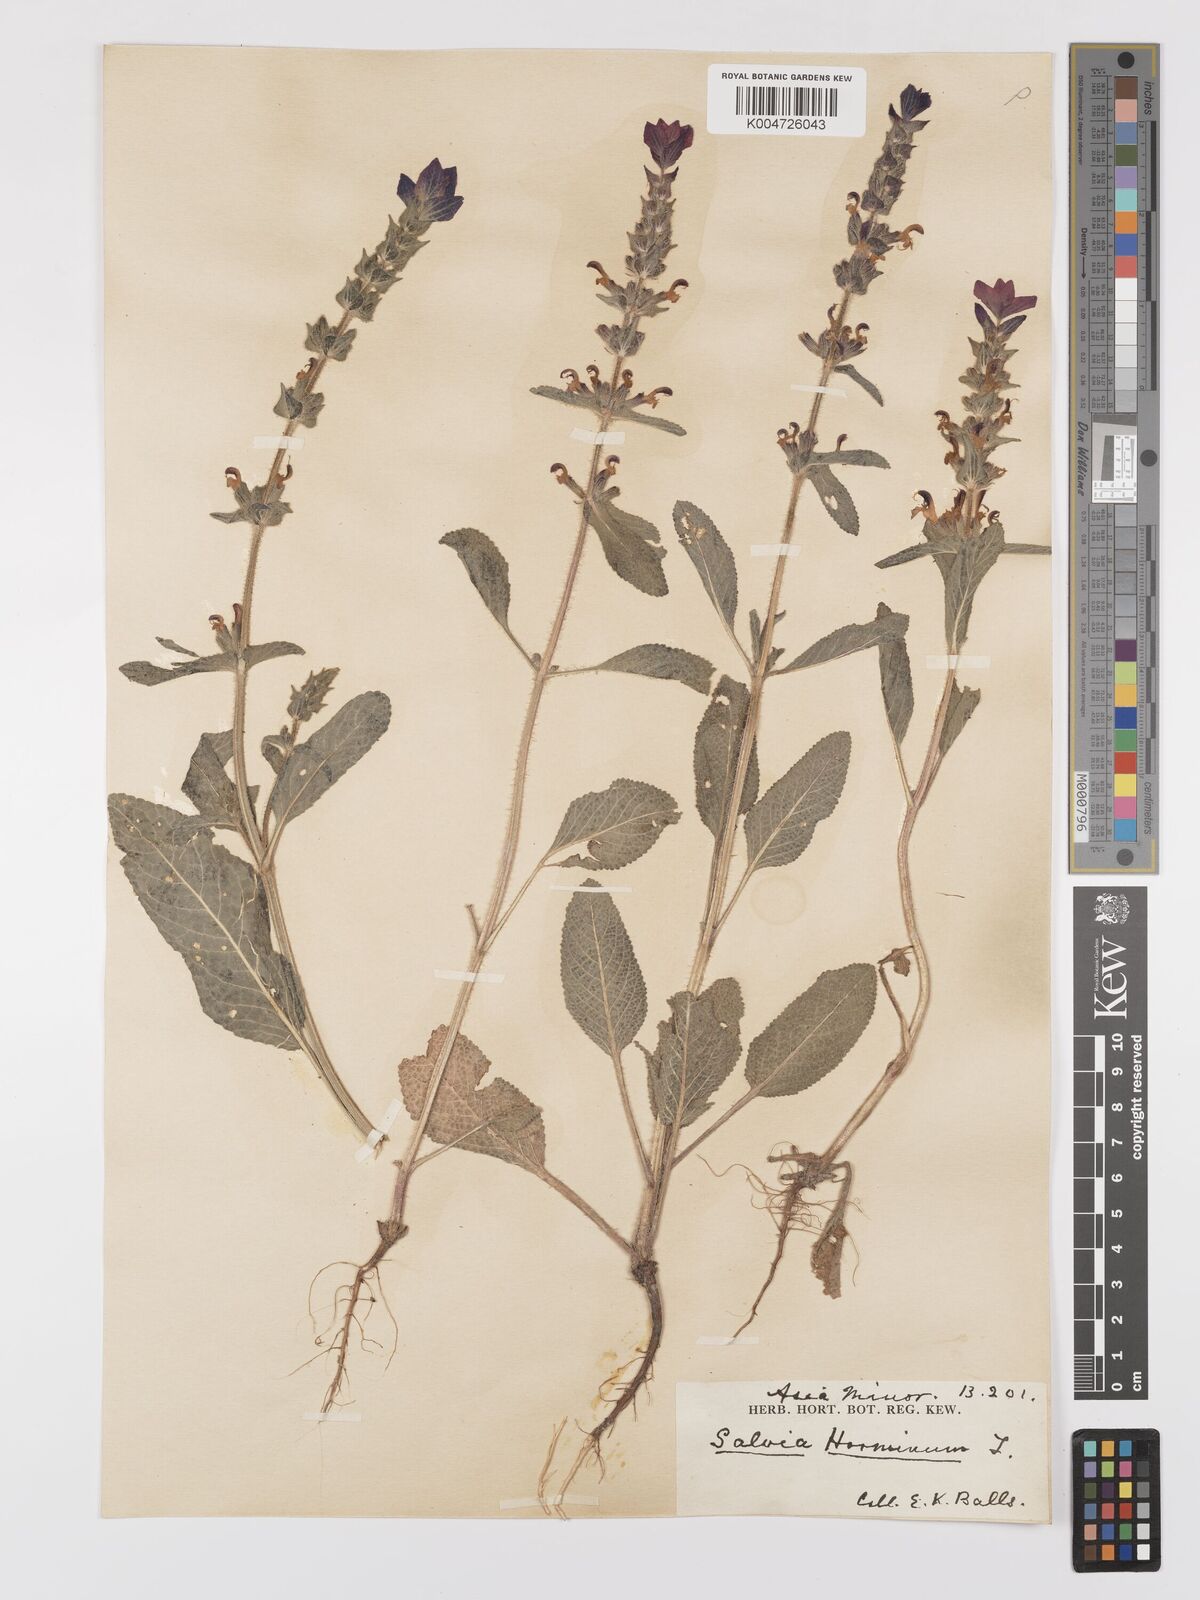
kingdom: Plantae
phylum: Tracheophyta
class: Magnoliopsida
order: Lamiales
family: Lamiaceae
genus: Salvia
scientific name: Salvia viridis
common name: Annual clary
